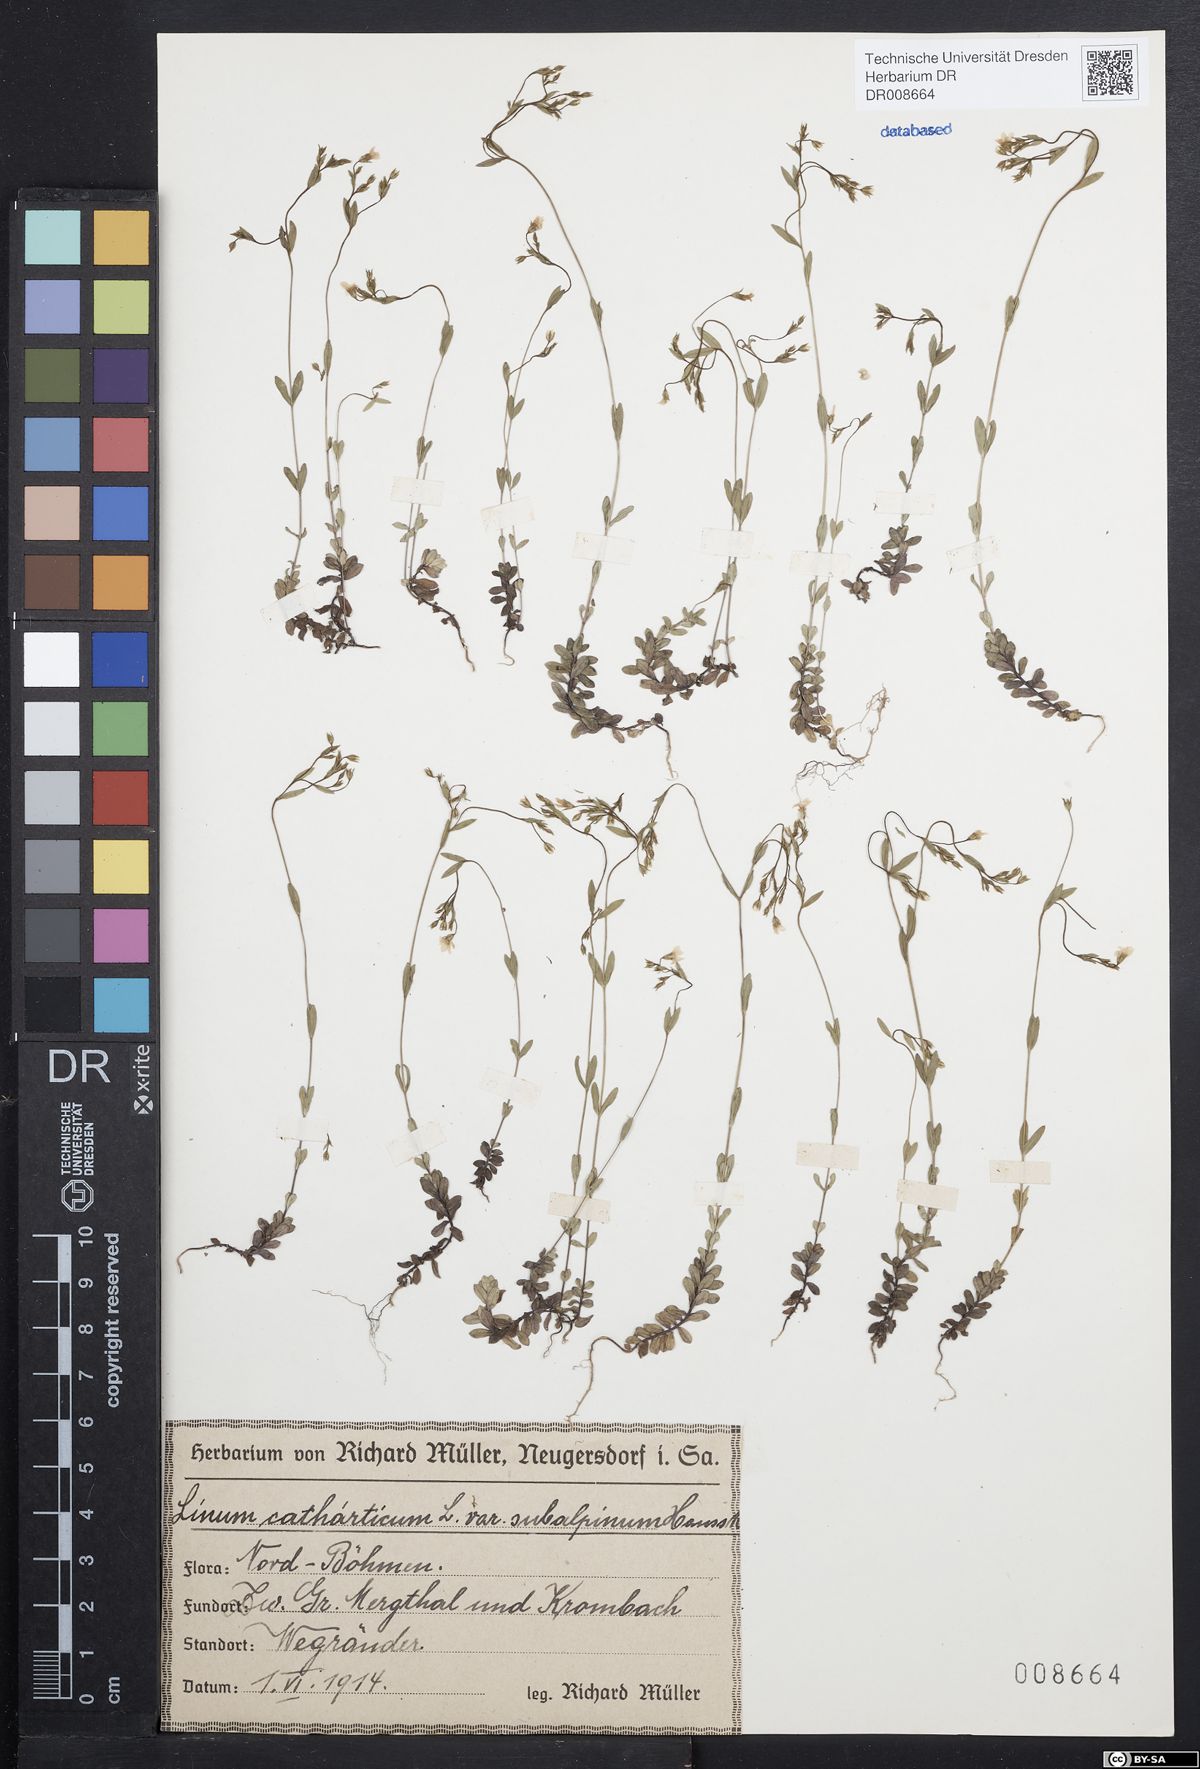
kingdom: Plantae
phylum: Tracheophyta
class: Magnoliopsida
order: Malpighiales
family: Linaceae
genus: Linum
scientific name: Linum catharticum
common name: Fairy flax
